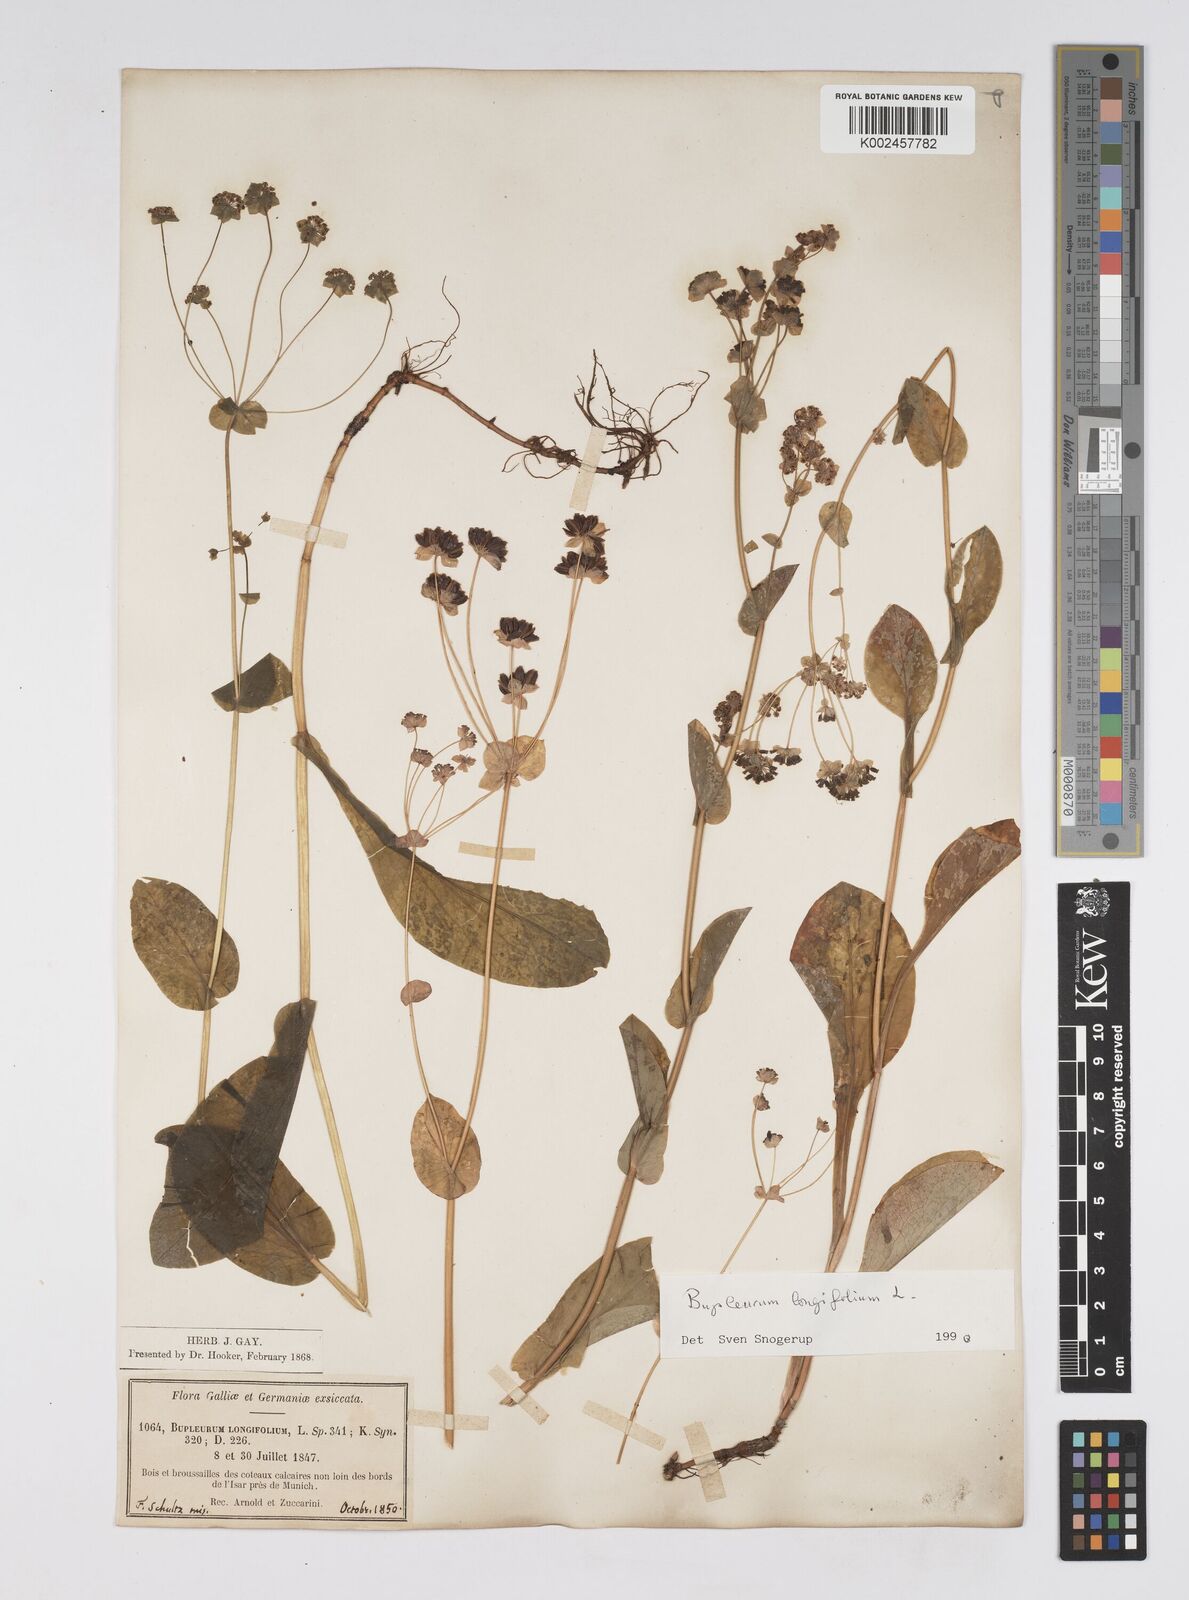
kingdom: Plantae
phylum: Tracheophyta
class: Magnoliopsida
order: Apiales
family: Apiaceae
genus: Bupleurum
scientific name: Bupleurum longifolium
